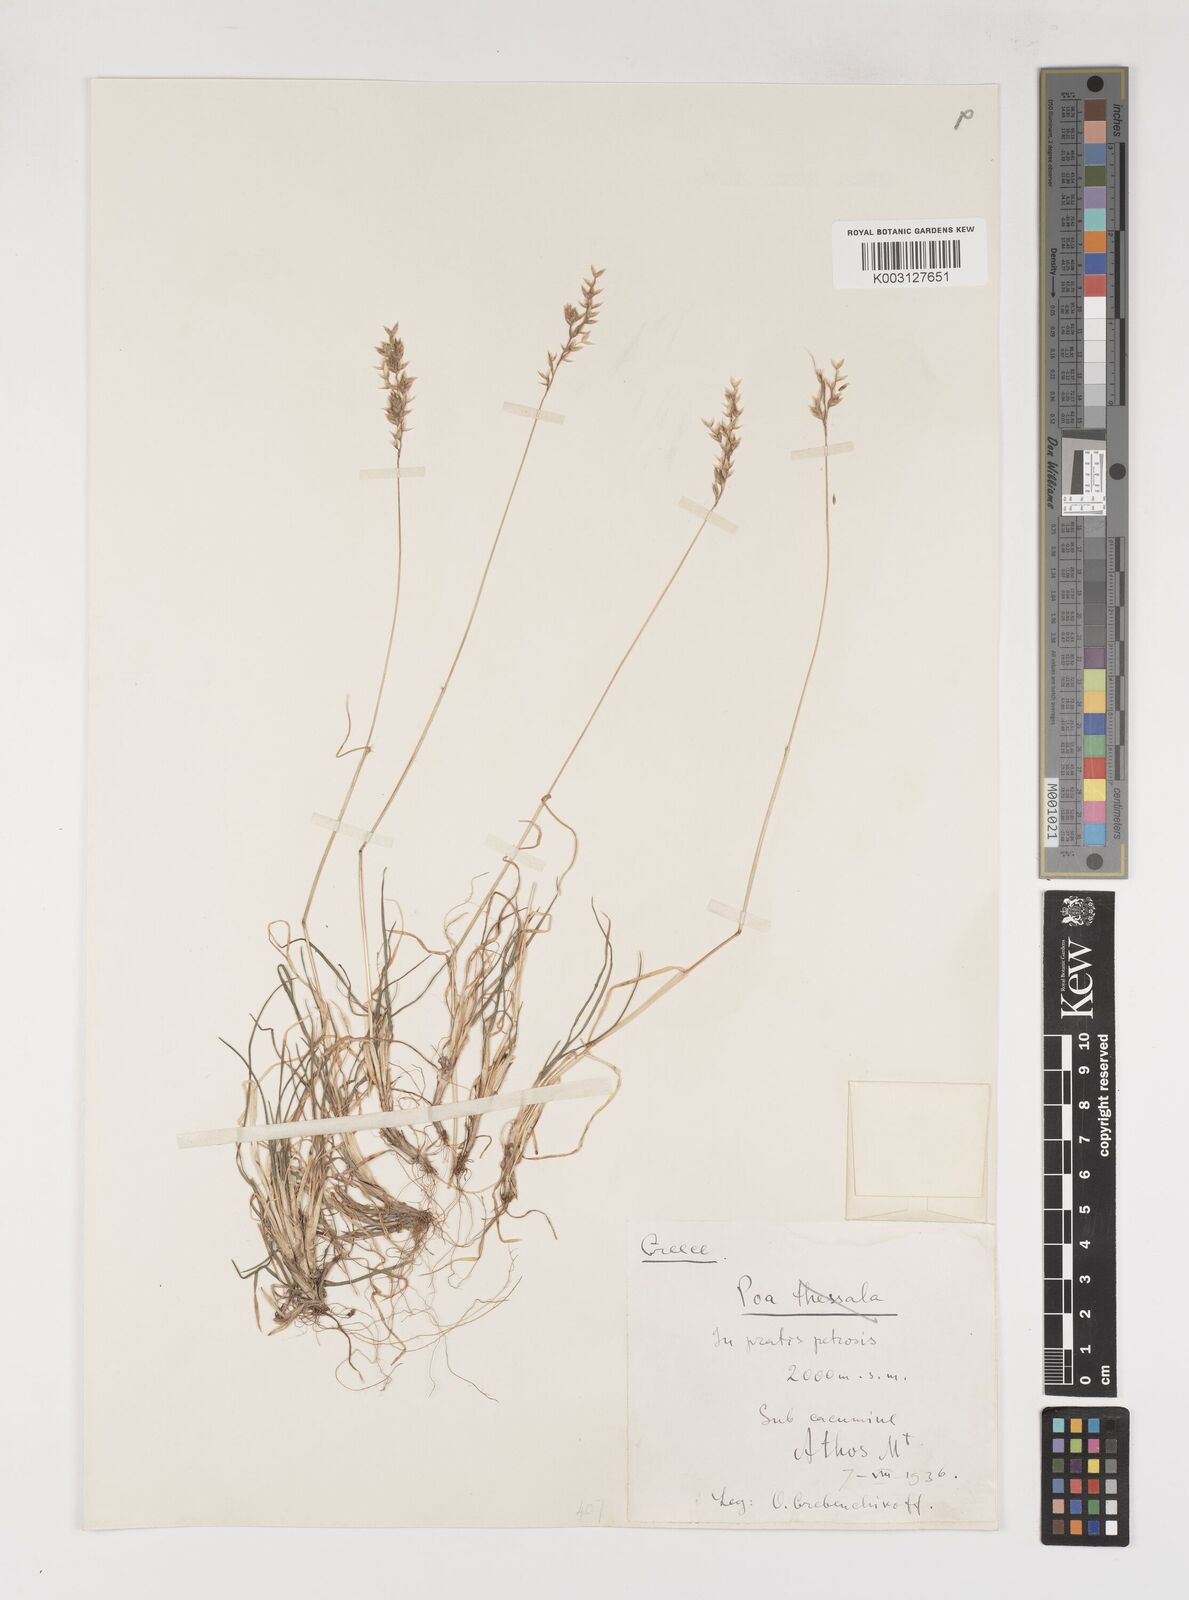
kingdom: Plantae
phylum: Tracheophyta
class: Liliopsida
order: Poales
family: Poaceae
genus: Poa
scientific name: Poa
